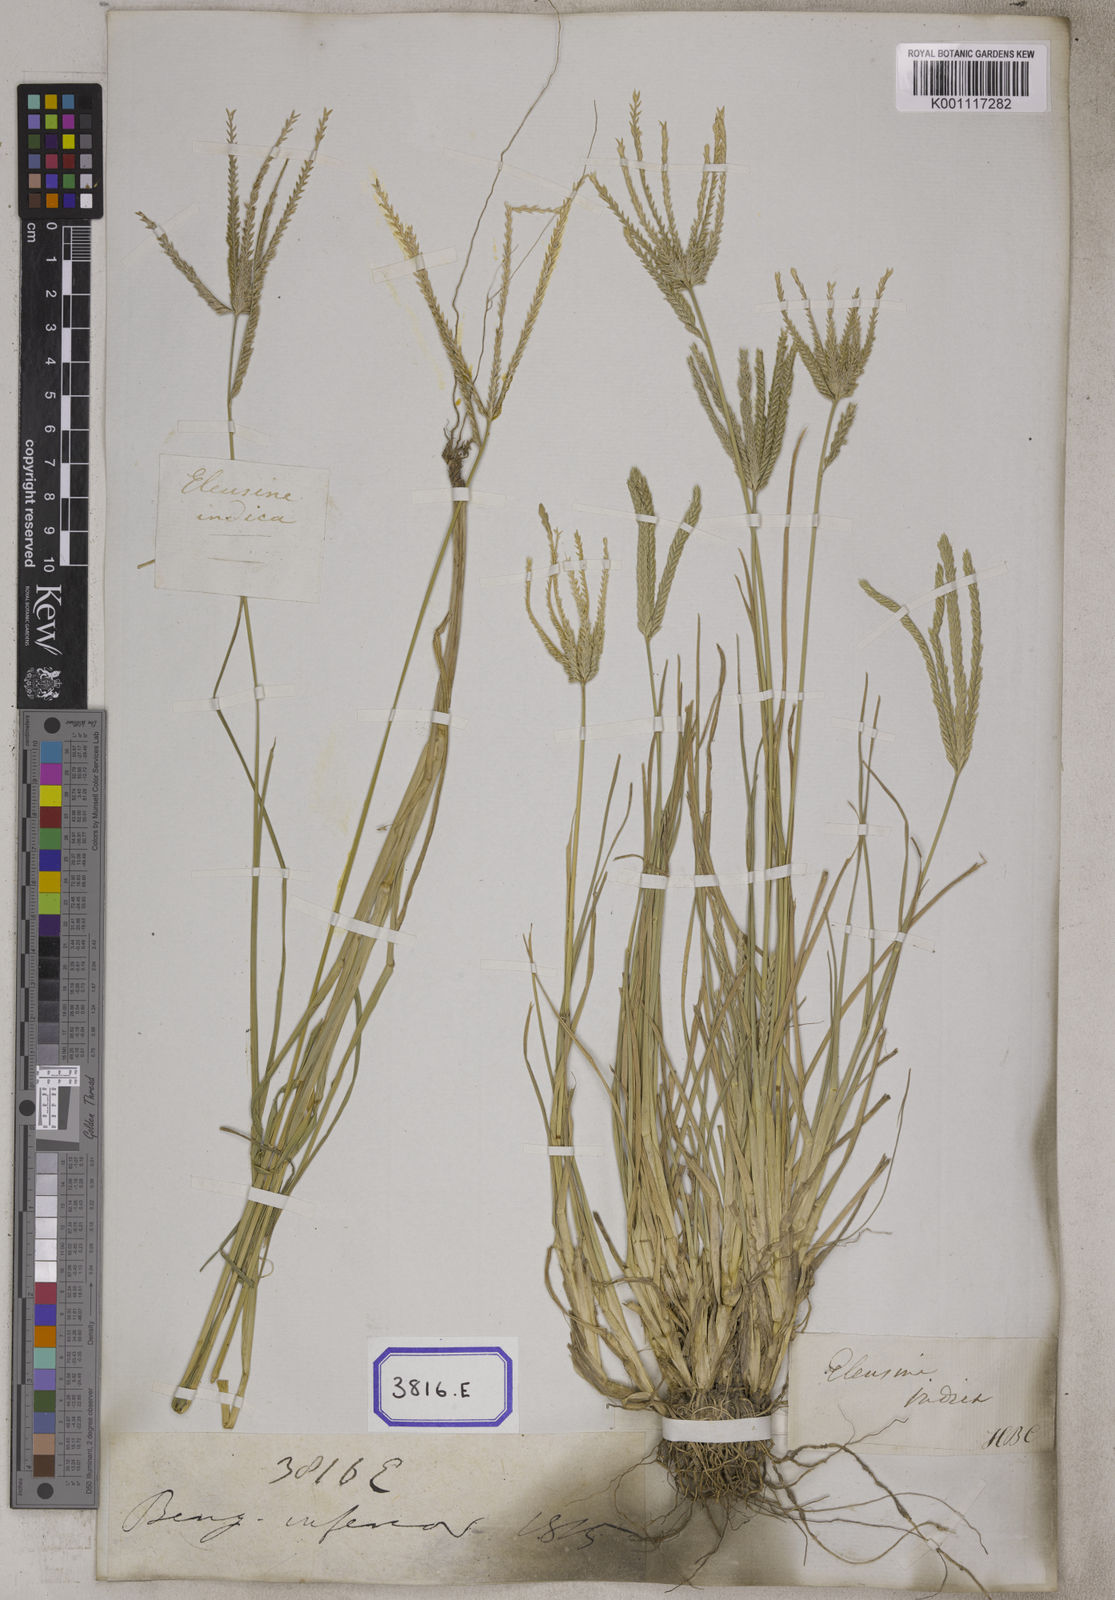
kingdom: Plantae
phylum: Tracheophyta
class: Liliopsida
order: Poales
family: Poaceae
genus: Eleusine
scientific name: Eleusine
